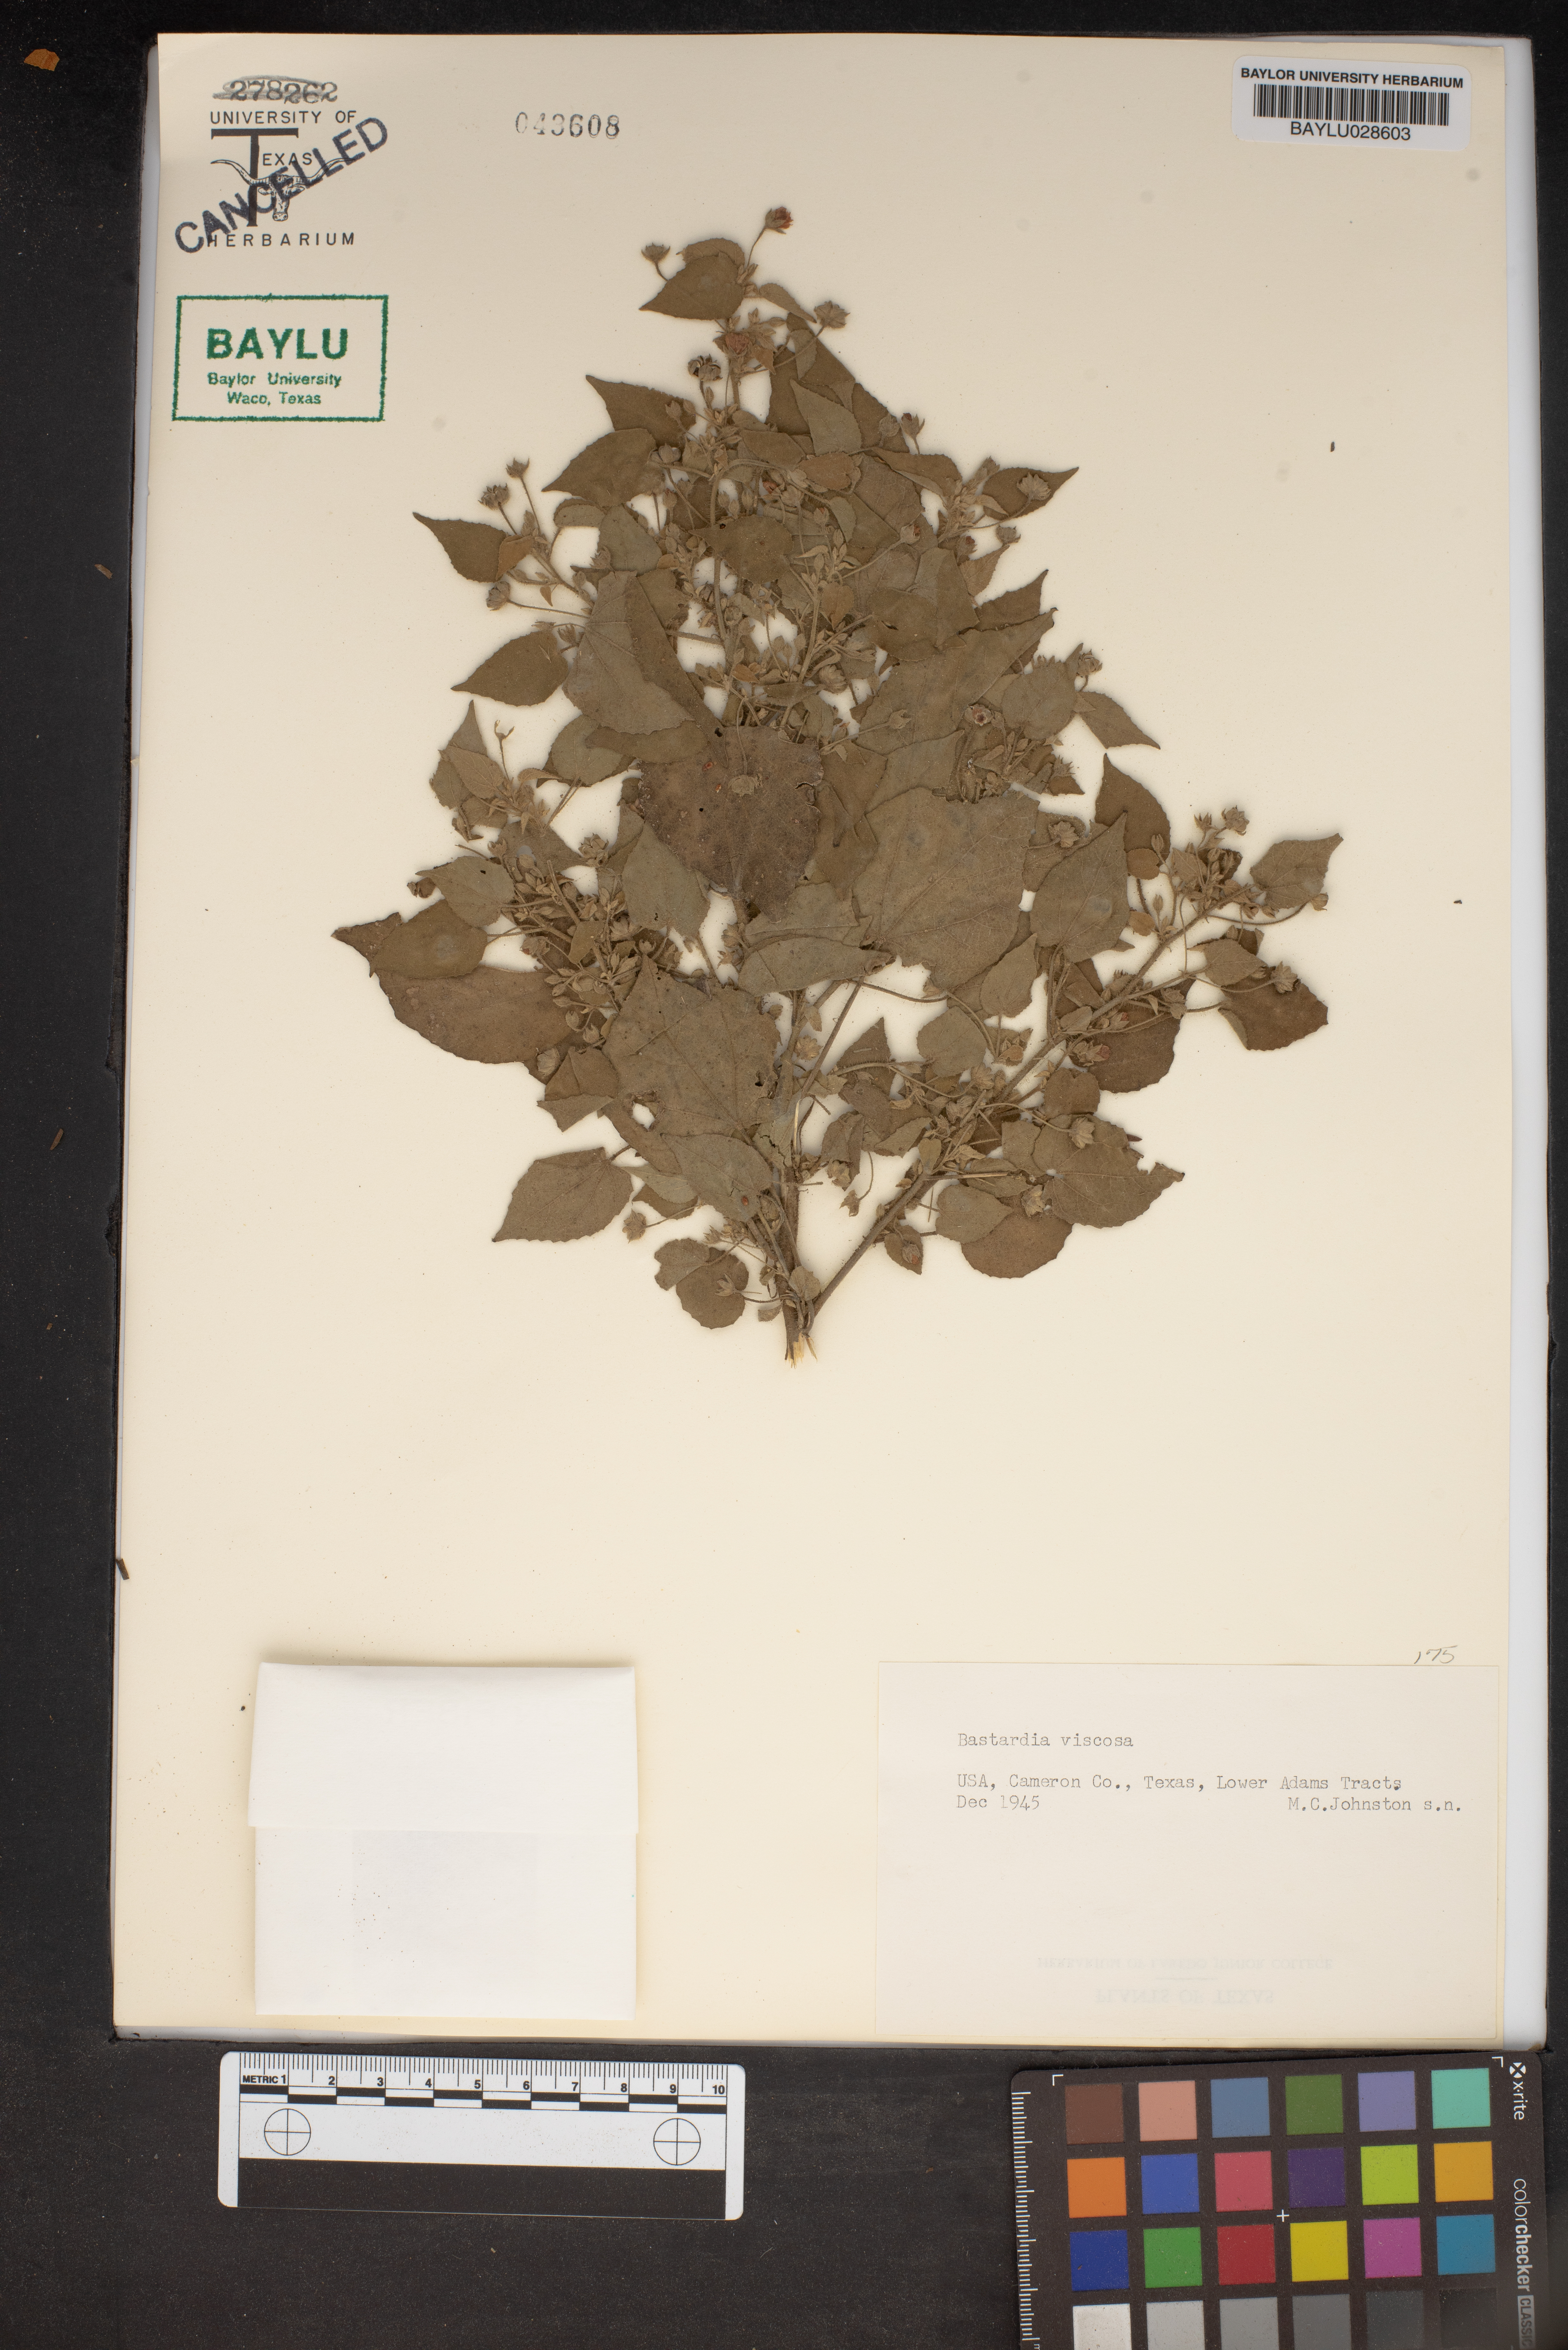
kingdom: Plantae
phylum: Tracheophyta
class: Magnoliopsida
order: Malvales
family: Malvaceae
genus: Abutilon
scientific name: Abutilon viscosum
